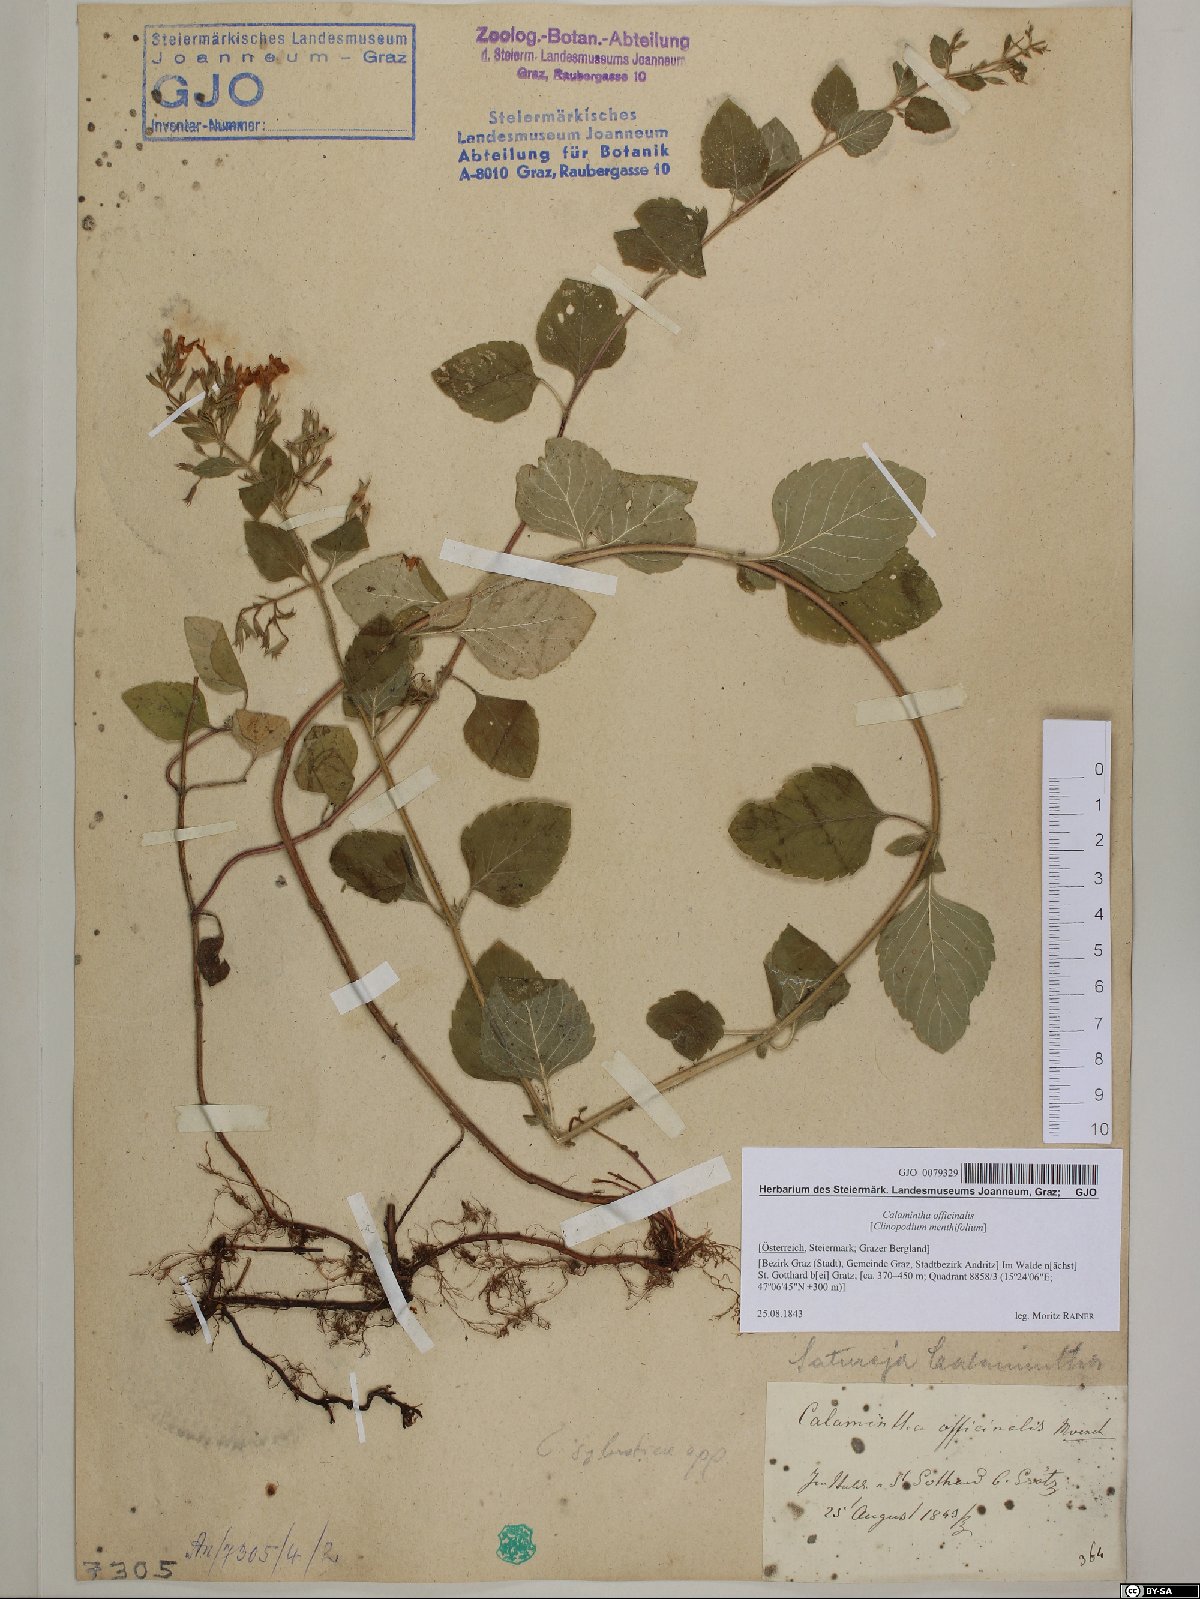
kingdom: Plantae
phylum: Tracheophyta
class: Magnoliopsida
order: Lamiales
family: Lamiaceae
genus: Clinopodium
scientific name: Clinopodium nepeta
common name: Lesser calamint
